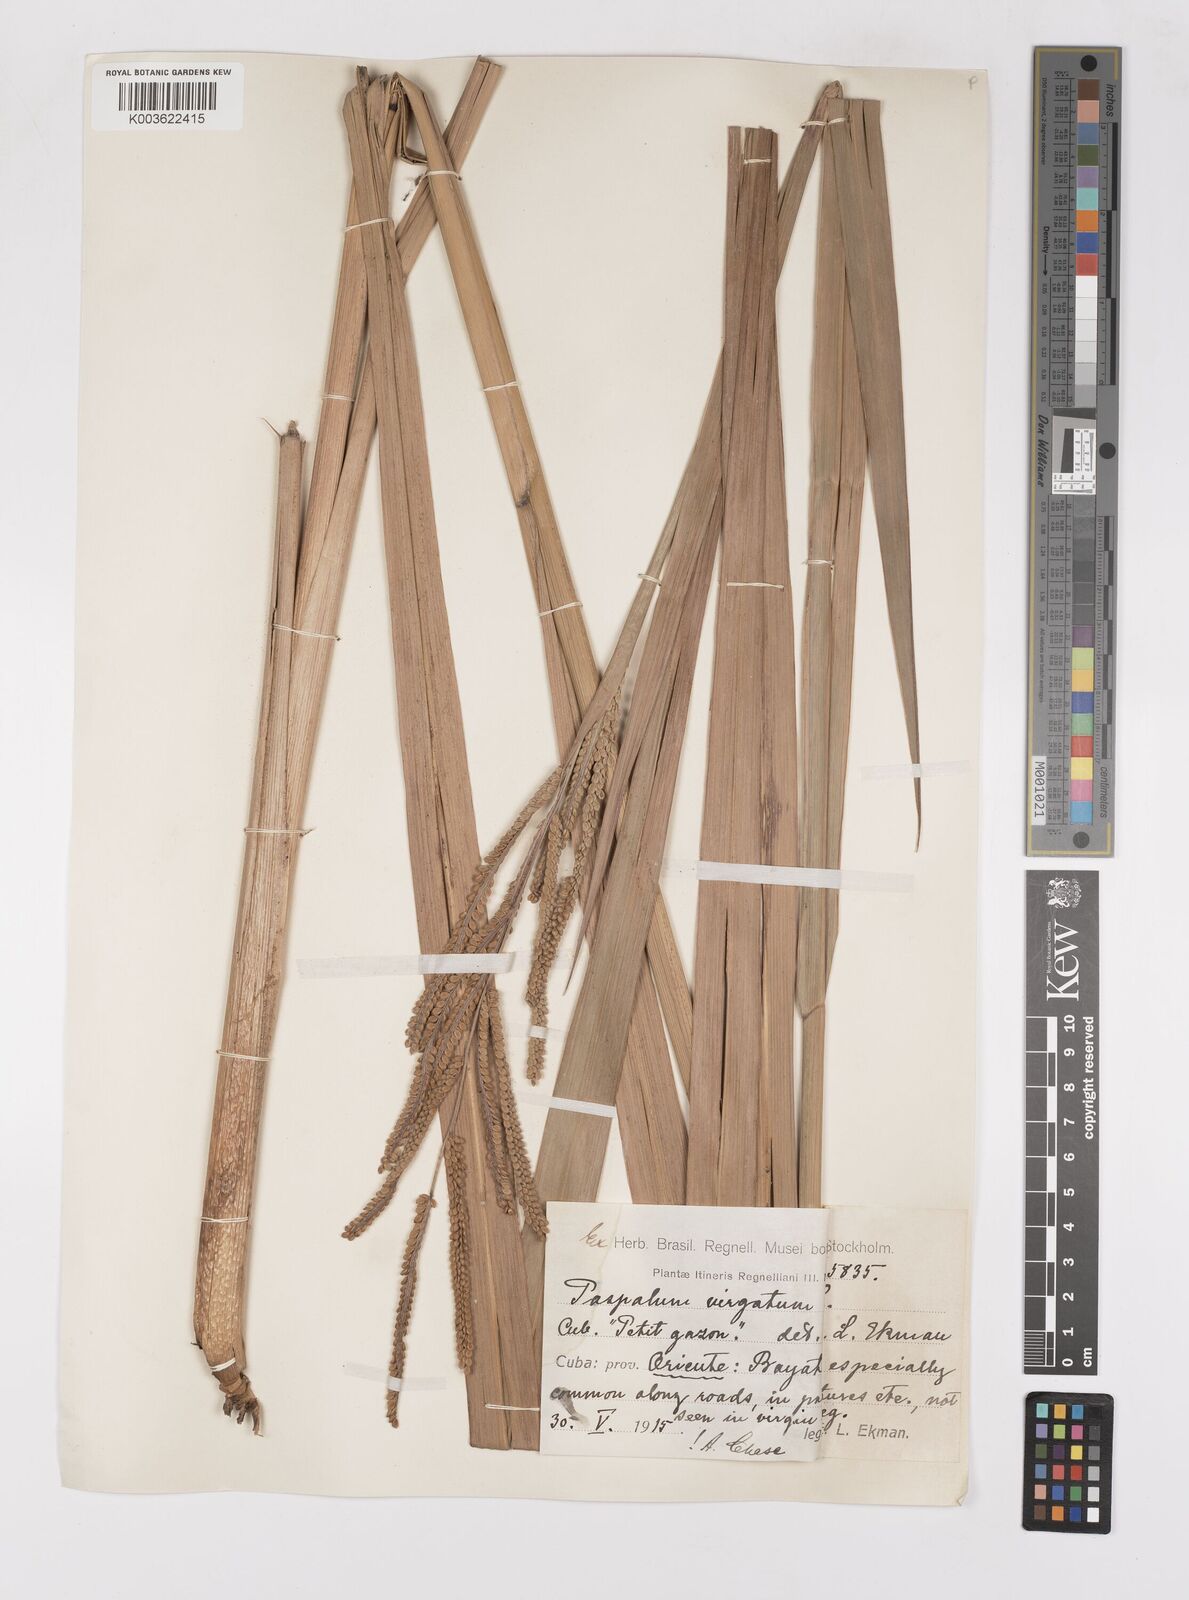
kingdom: Plantae
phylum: Tracheophyta
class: Liliopsida
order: Poales
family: Poaceae
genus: Paspalum
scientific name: Paspalum virgatum
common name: Talquezal
